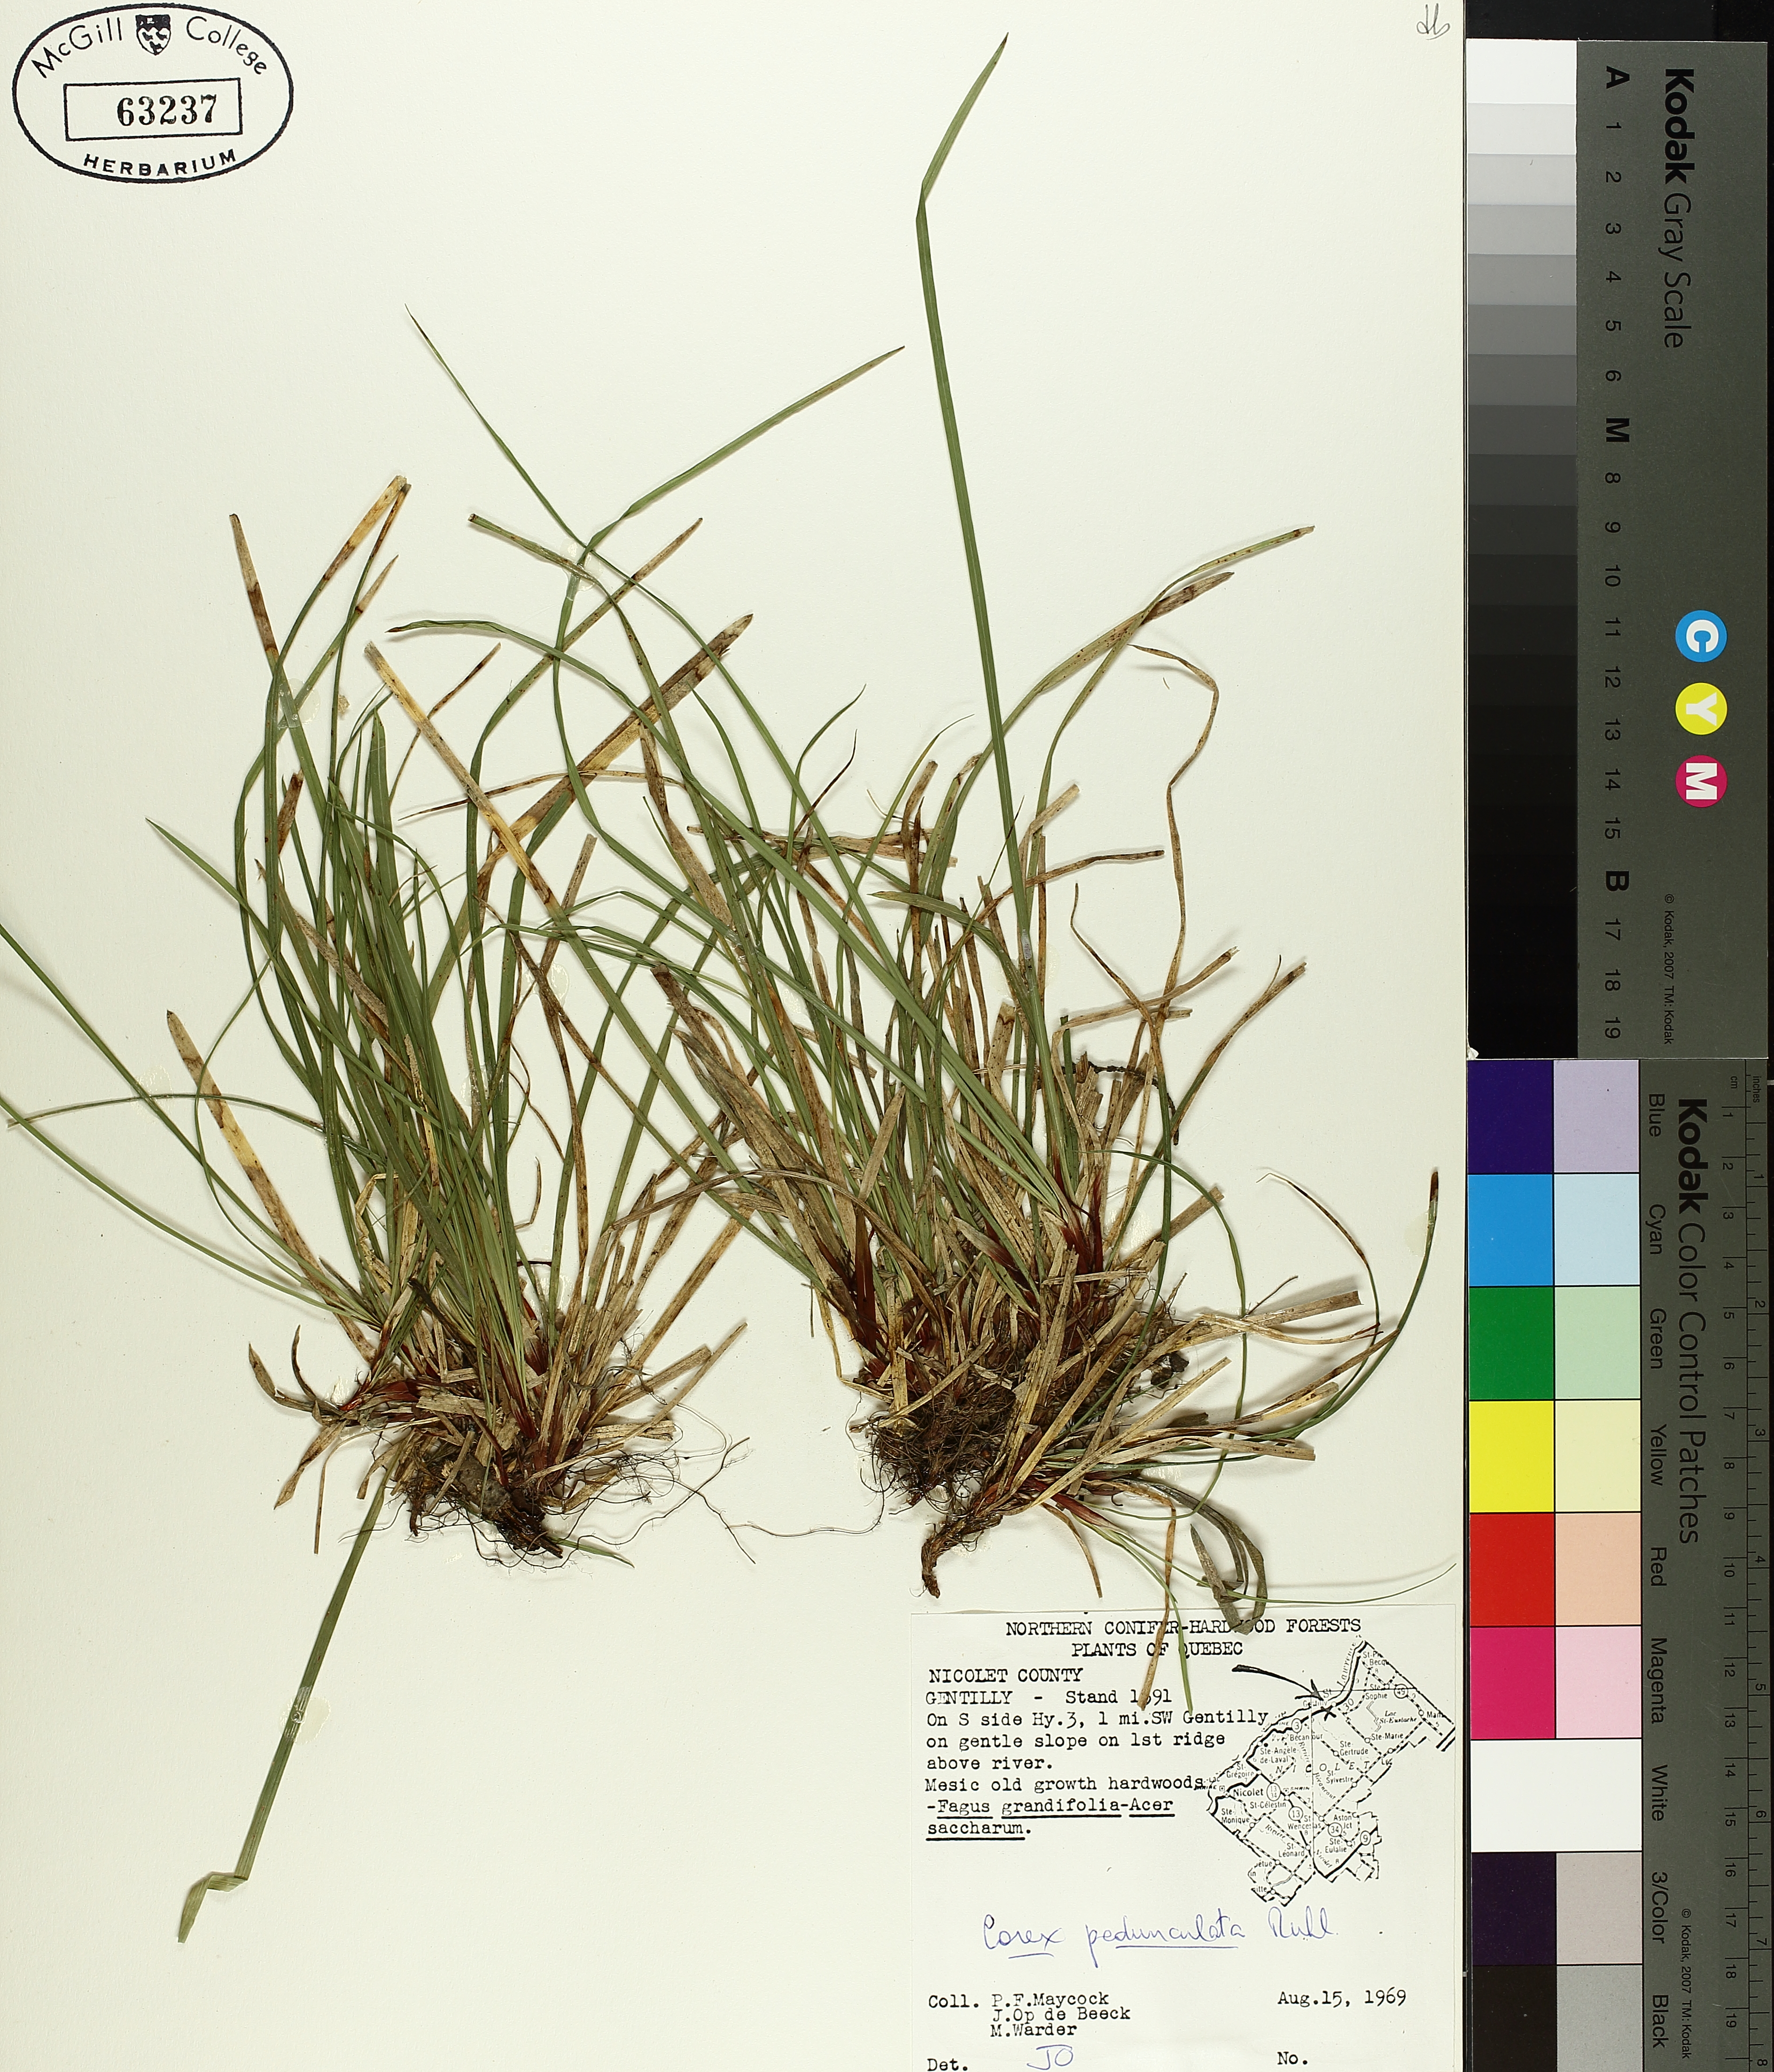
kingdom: Plantae
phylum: Tracheophyta
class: Liliopsida
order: Poales
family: Cyperaceae
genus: Carex
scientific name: Carex pedunculata
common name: Pedunculate sedge
